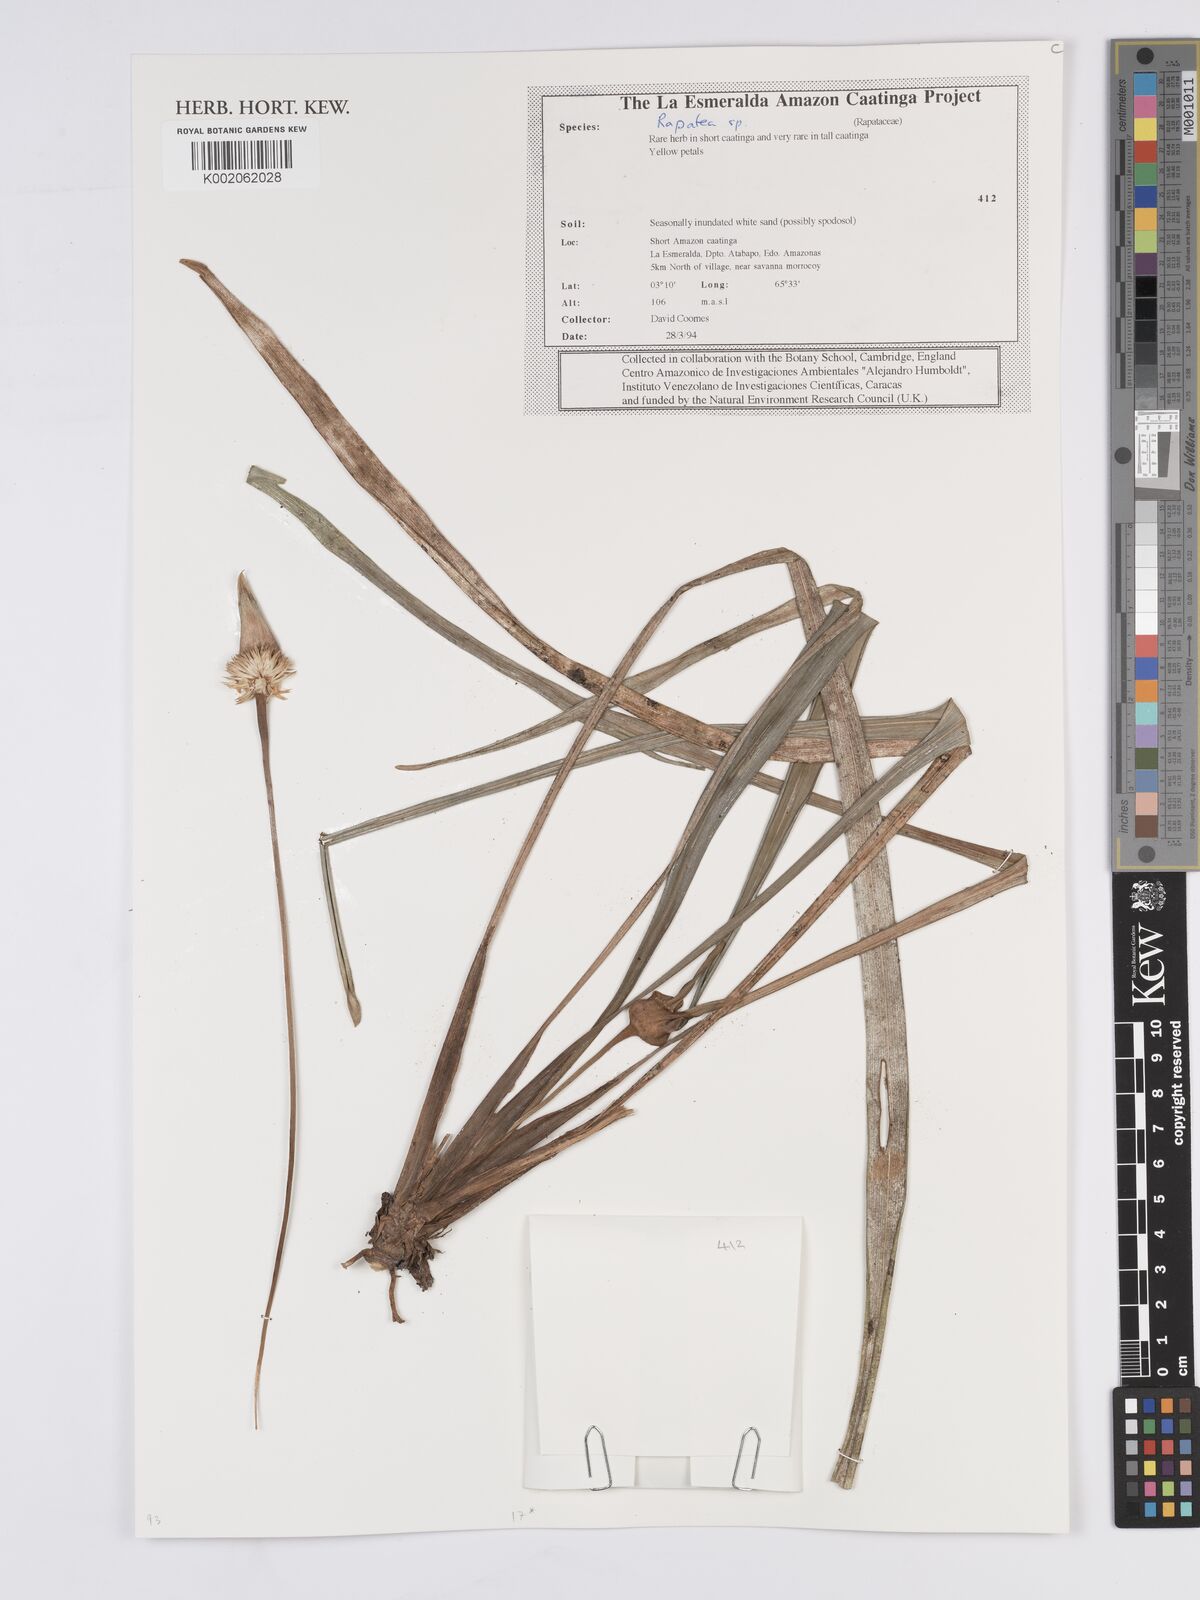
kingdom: Plantae
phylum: Tracheophyta
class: Liliopsida
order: Poales
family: Rapateaceae
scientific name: Rapateaceae
